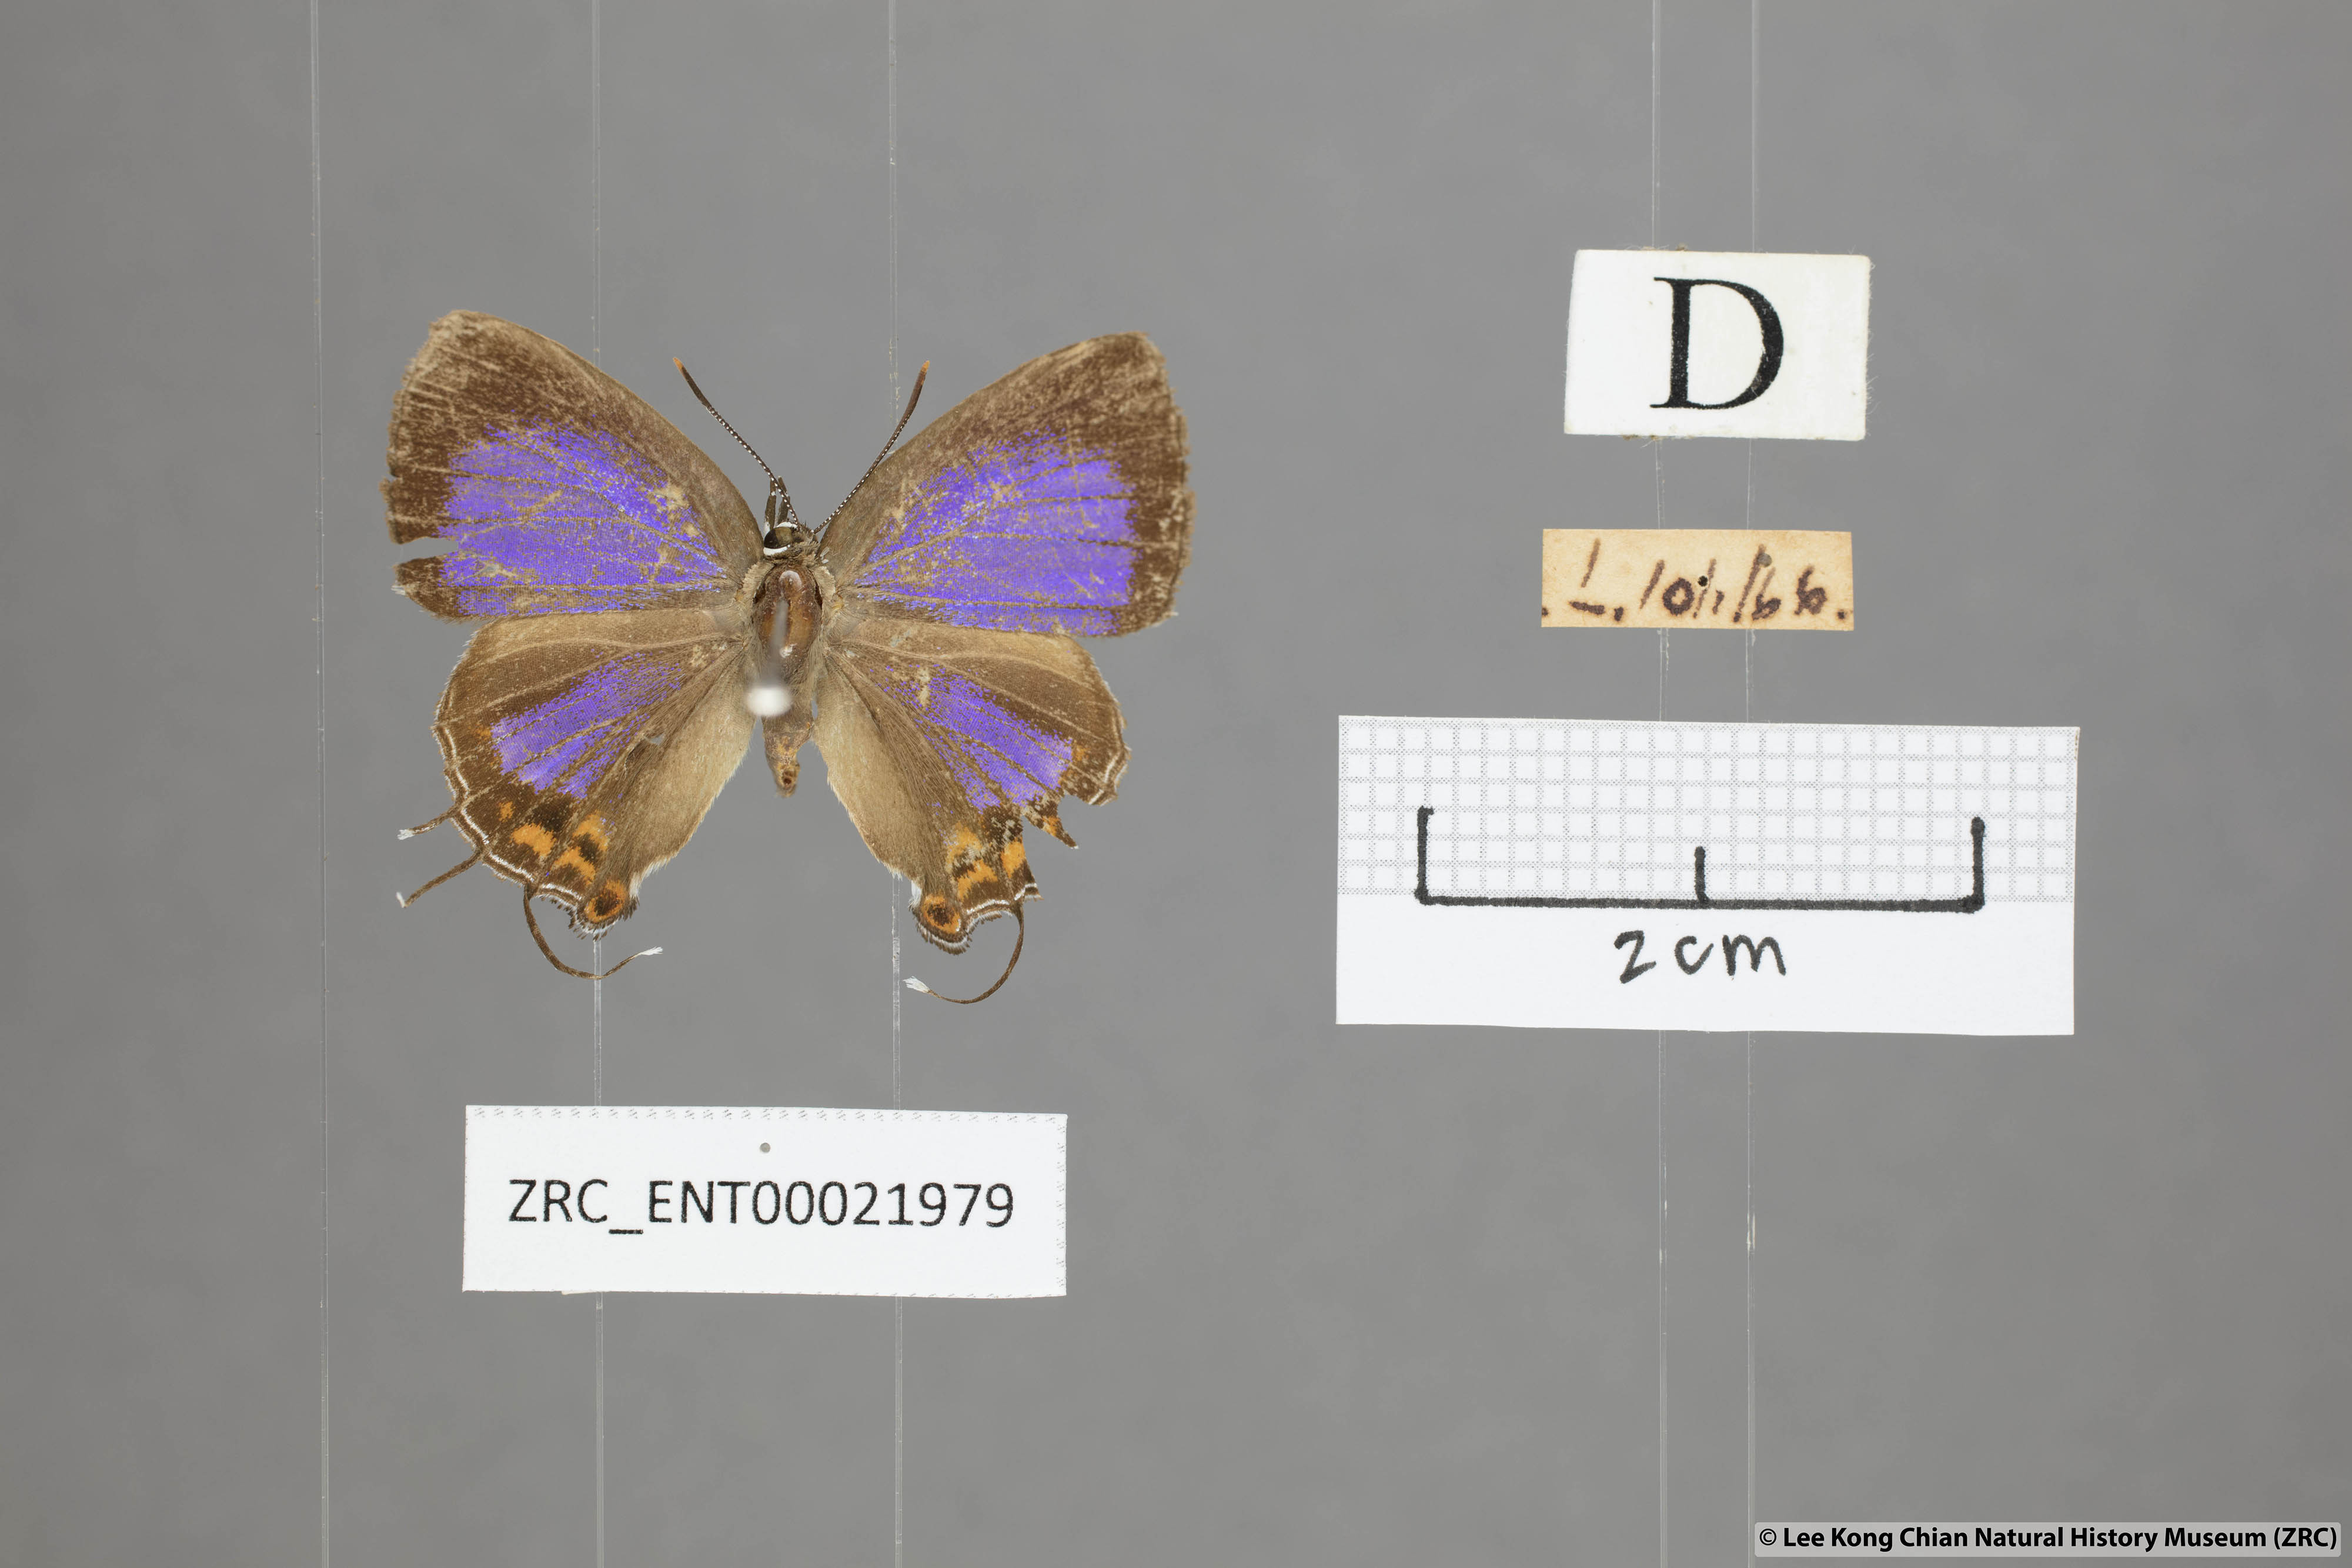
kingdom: Animalia
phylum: Arthropoda
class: Insecta
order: Lepidoptera
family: Lycaenidae
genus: Semanga
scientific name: Semanga superba
